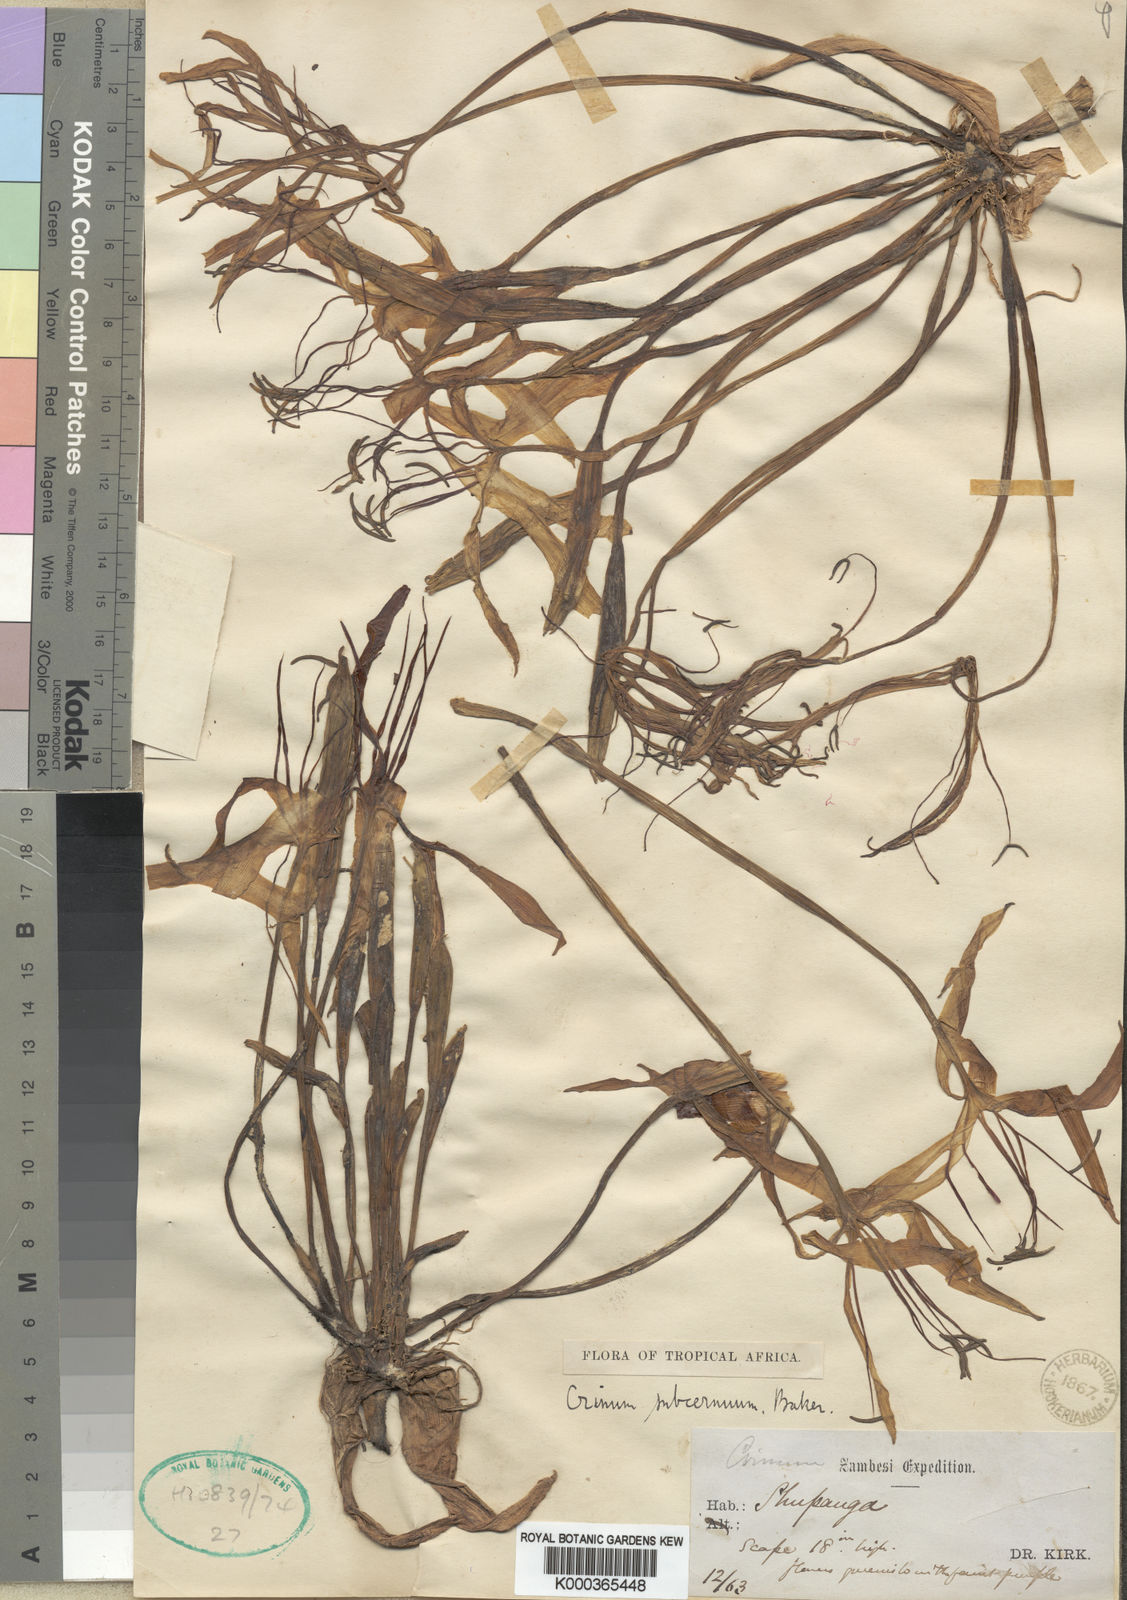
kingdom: Plantae
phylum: Tracheophyta
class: Liliopsida
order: Asparagales
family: Amaryllidaceae
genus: Crinum
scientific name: Crinum subcernuum
